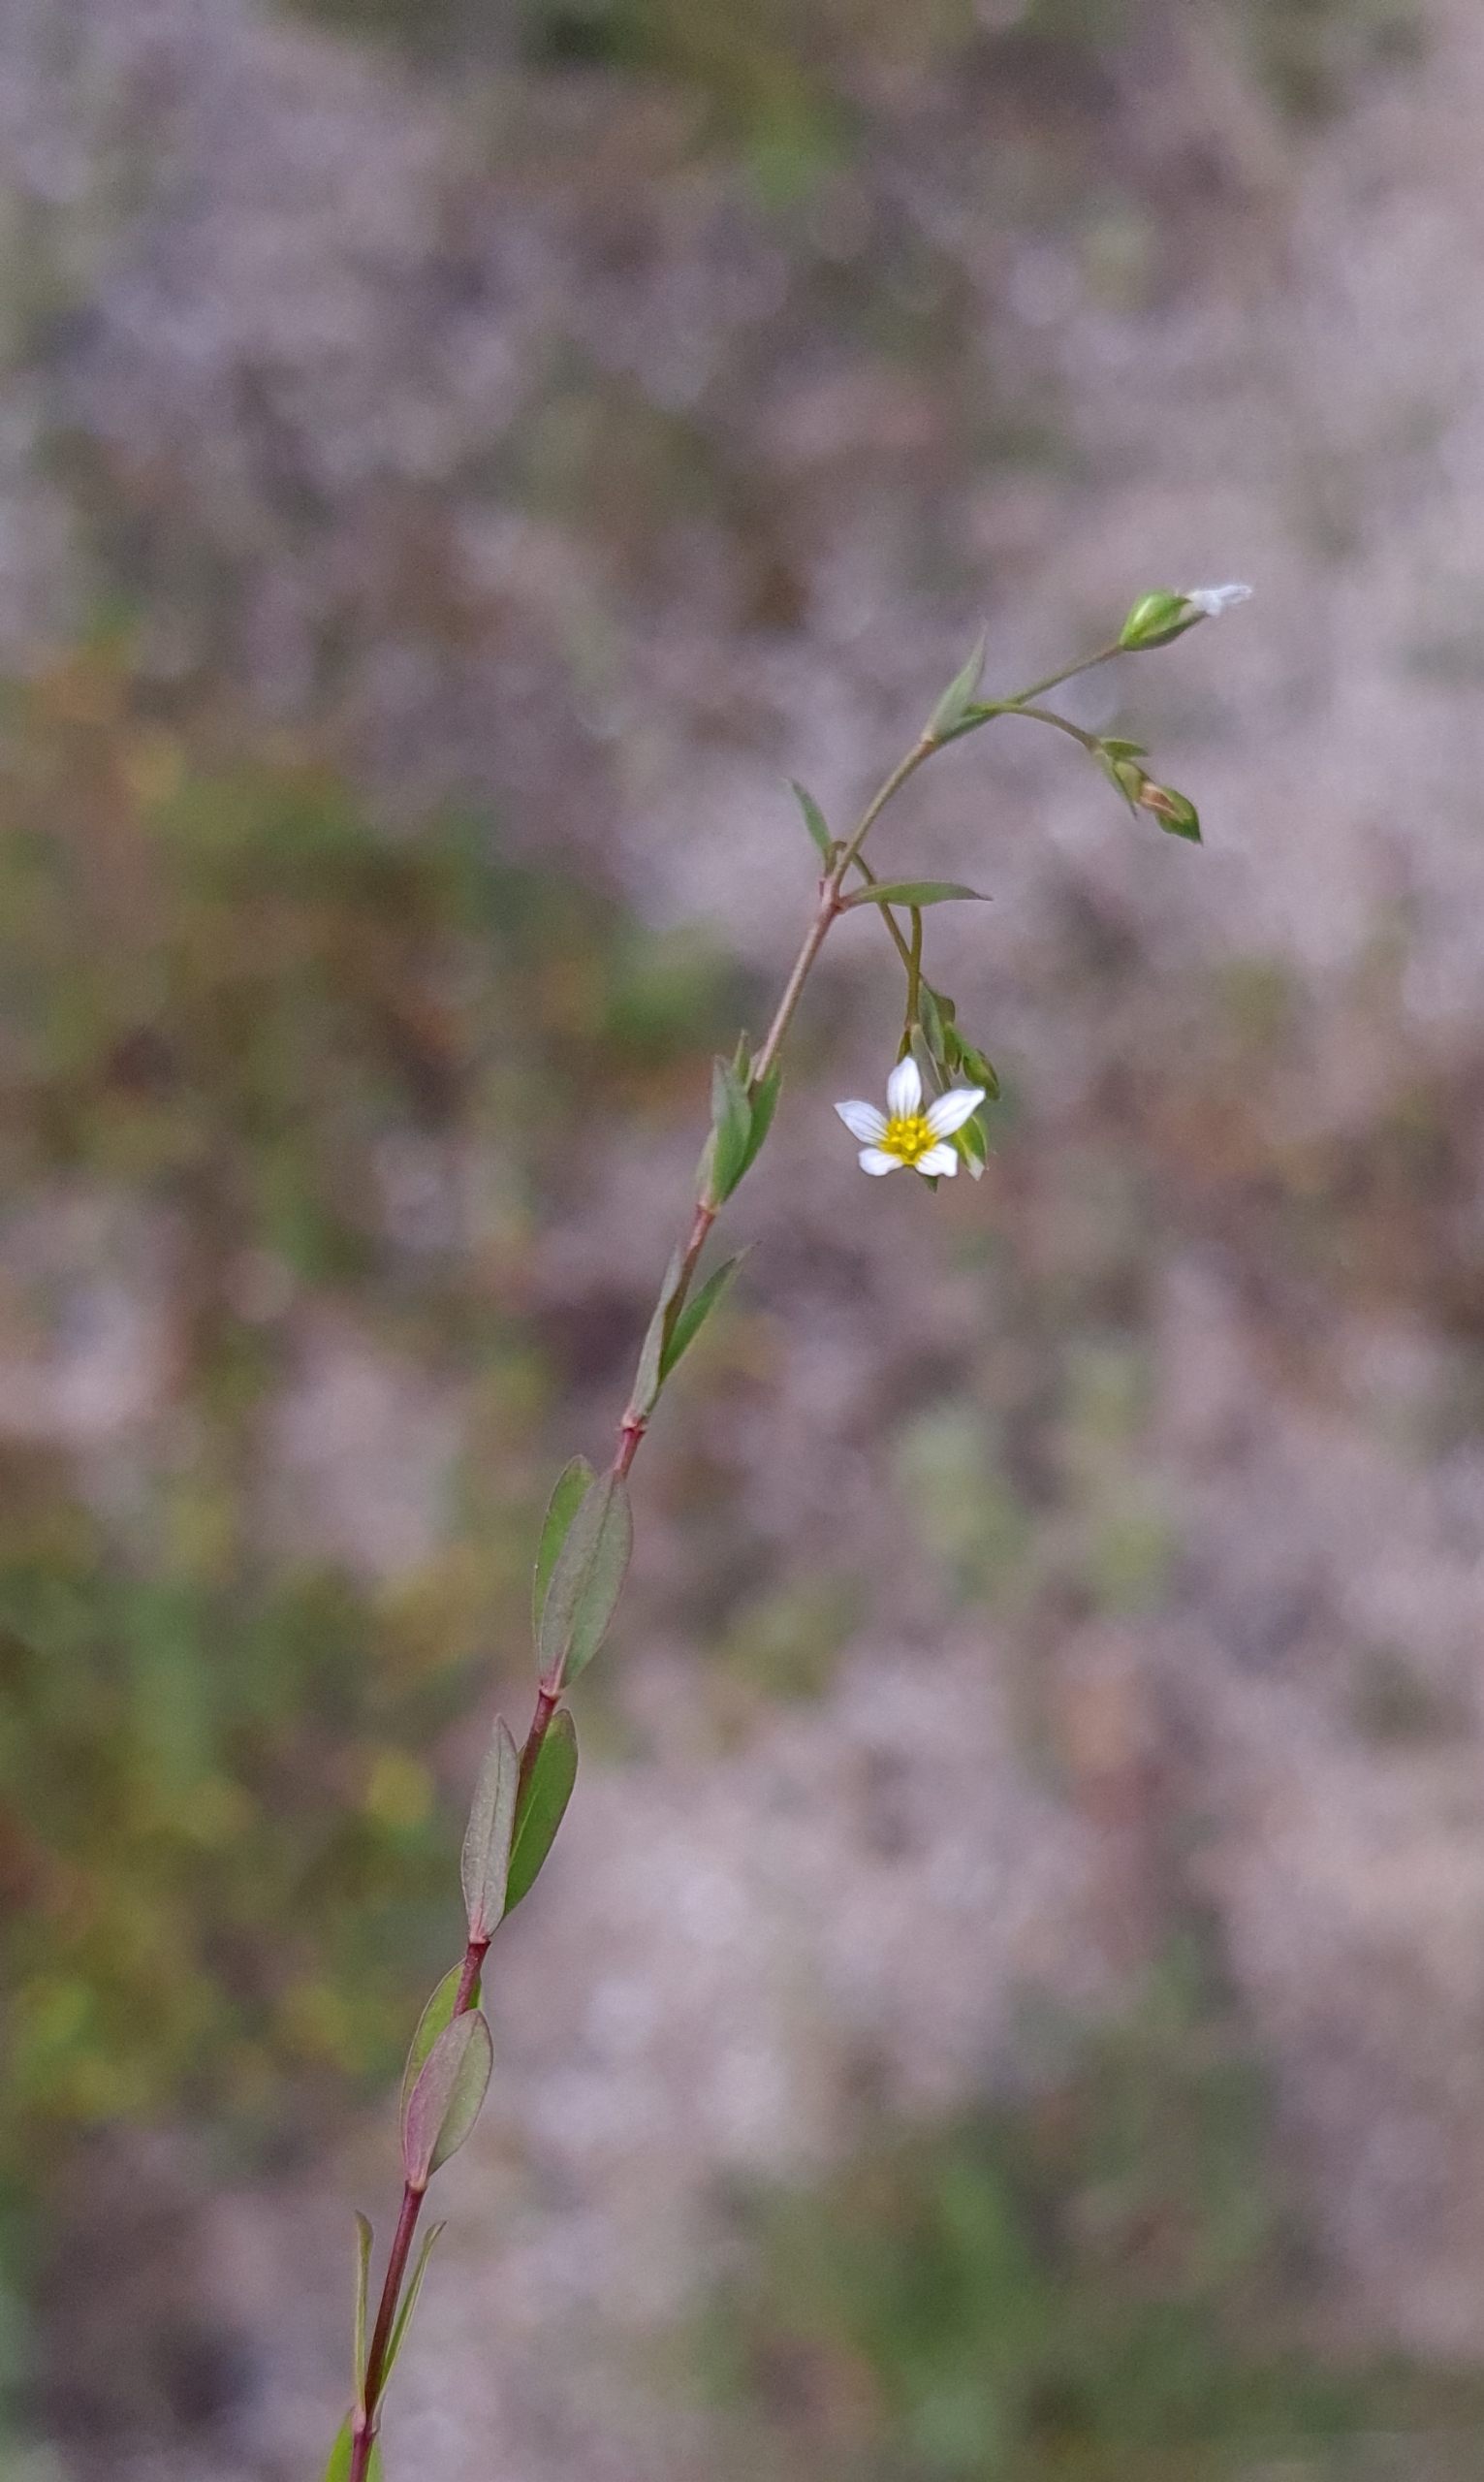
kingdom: Plantae
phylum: Tracheophyta
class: Magnoliopsida
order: Malpighiales
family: Linaceae
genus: Linum
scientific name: Linum catharticum
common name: Vild hør
